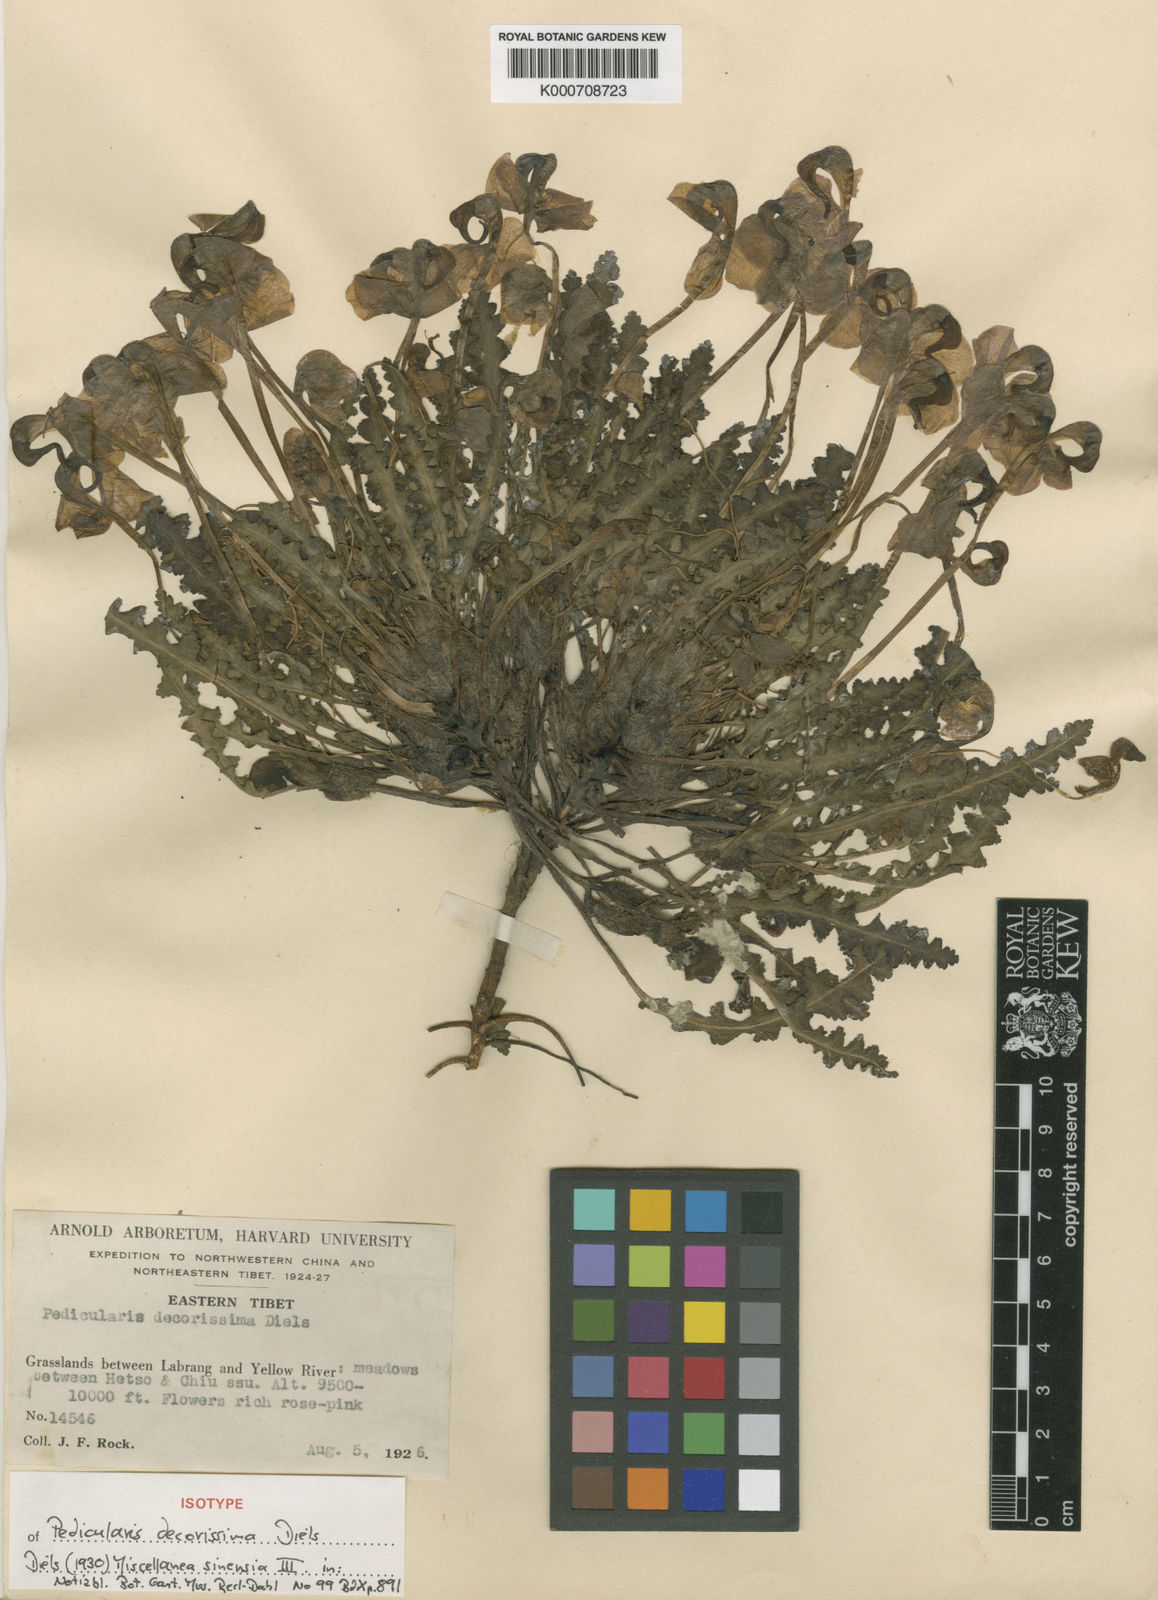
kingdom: Plantae
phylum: Tracheophyta
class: Magnoliopsida
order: Lamiales
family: Orobanchaceae
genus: Pedicularis
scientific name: Pedicularis decorissima
